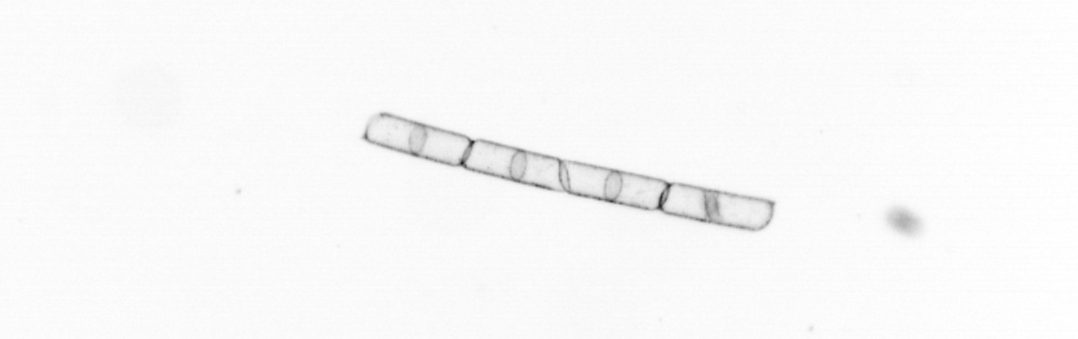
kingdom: Chromista
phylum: Ochrophyta
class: Bacillariophyceae
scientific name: Bacillariophyceae
